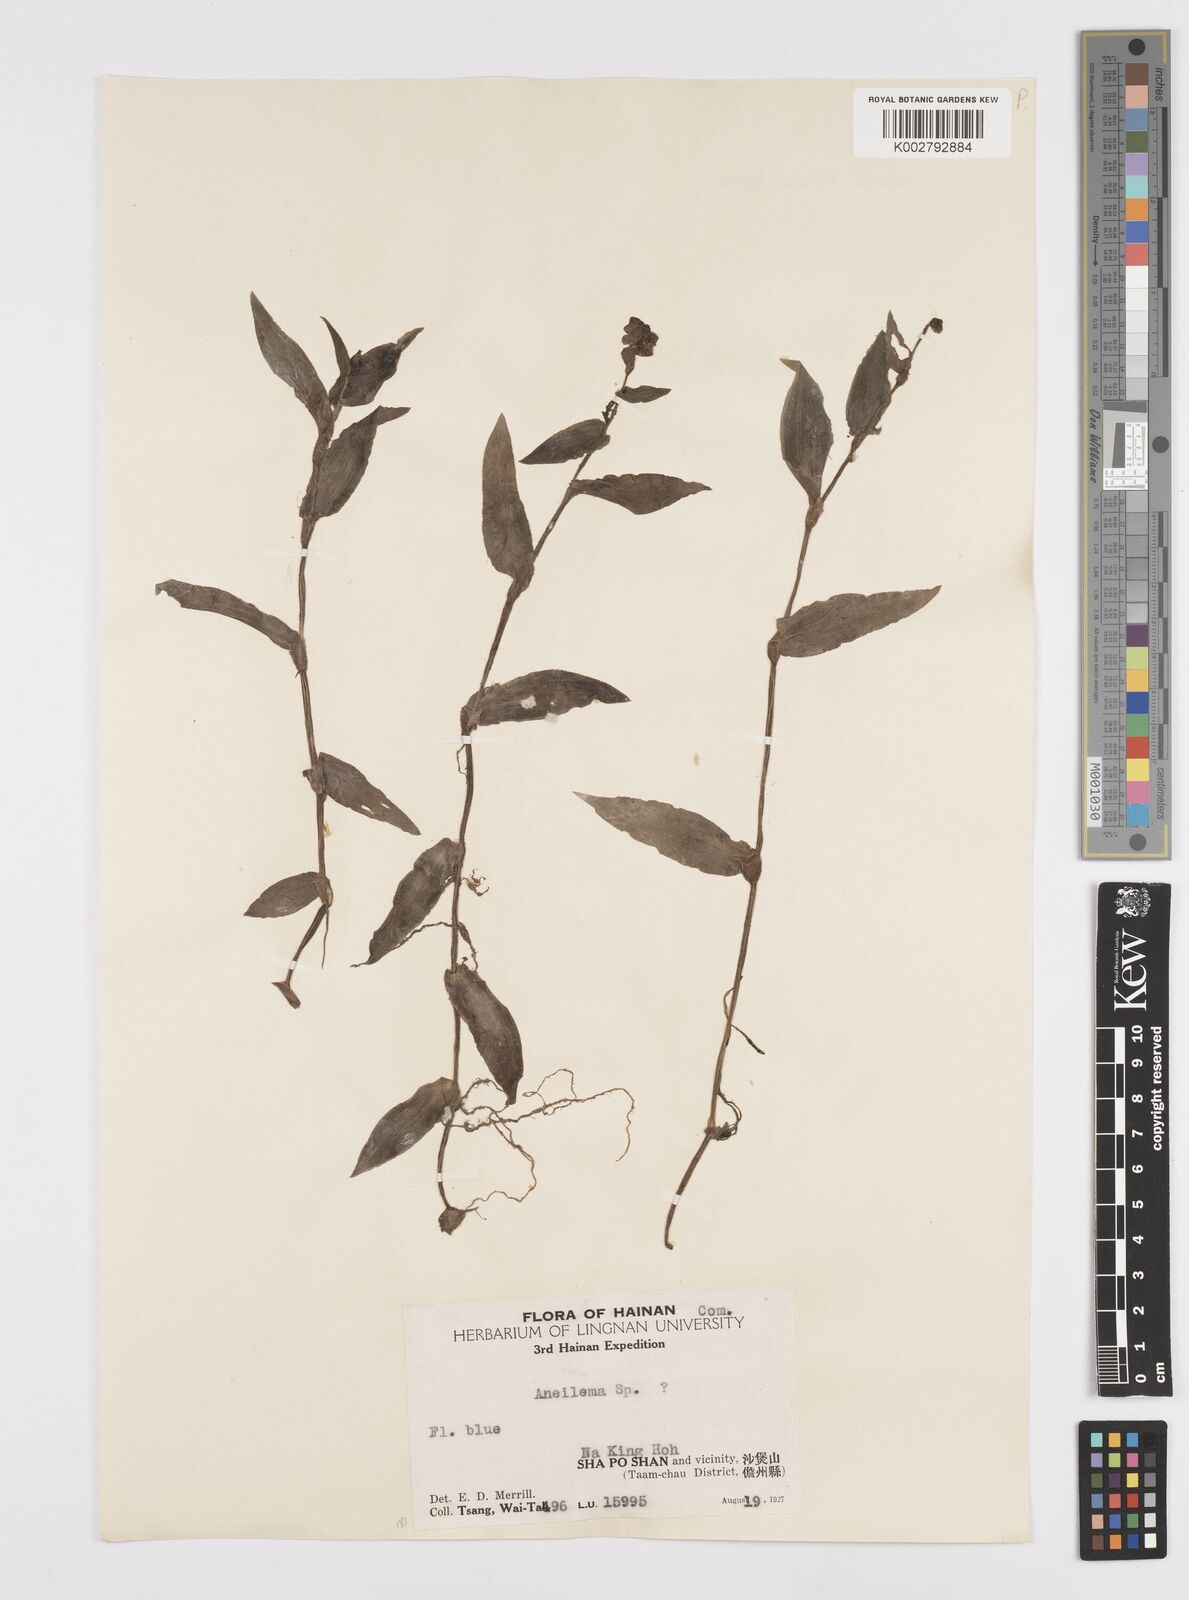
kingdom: Plantae
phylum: Tracheophyta
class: Liliopsida
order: Commelinales
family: Commelinaceae
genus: Murdannia
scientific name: Murdannia
